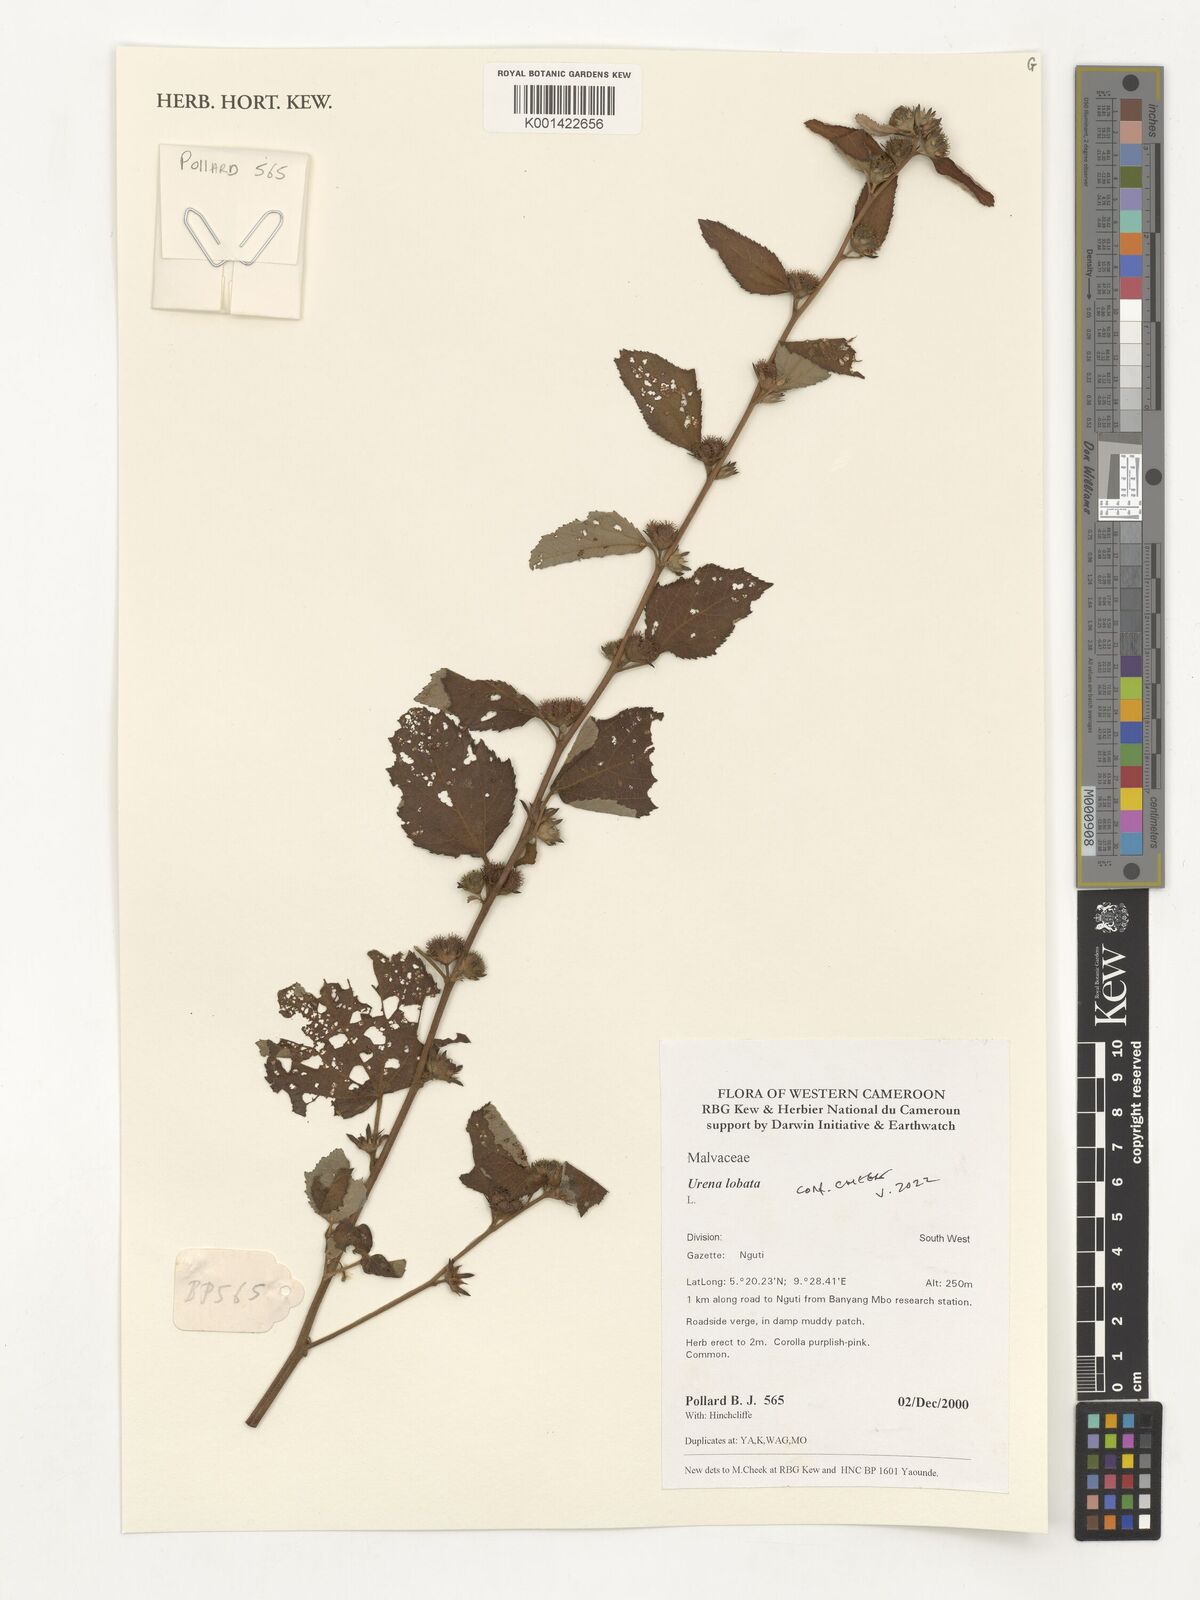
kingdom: Plantae
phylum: Tracheophyta
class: Magnoliopsida
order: Malvales
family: Malvaceae
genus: Urena
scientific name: Urena lobata
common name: Caesarweed
